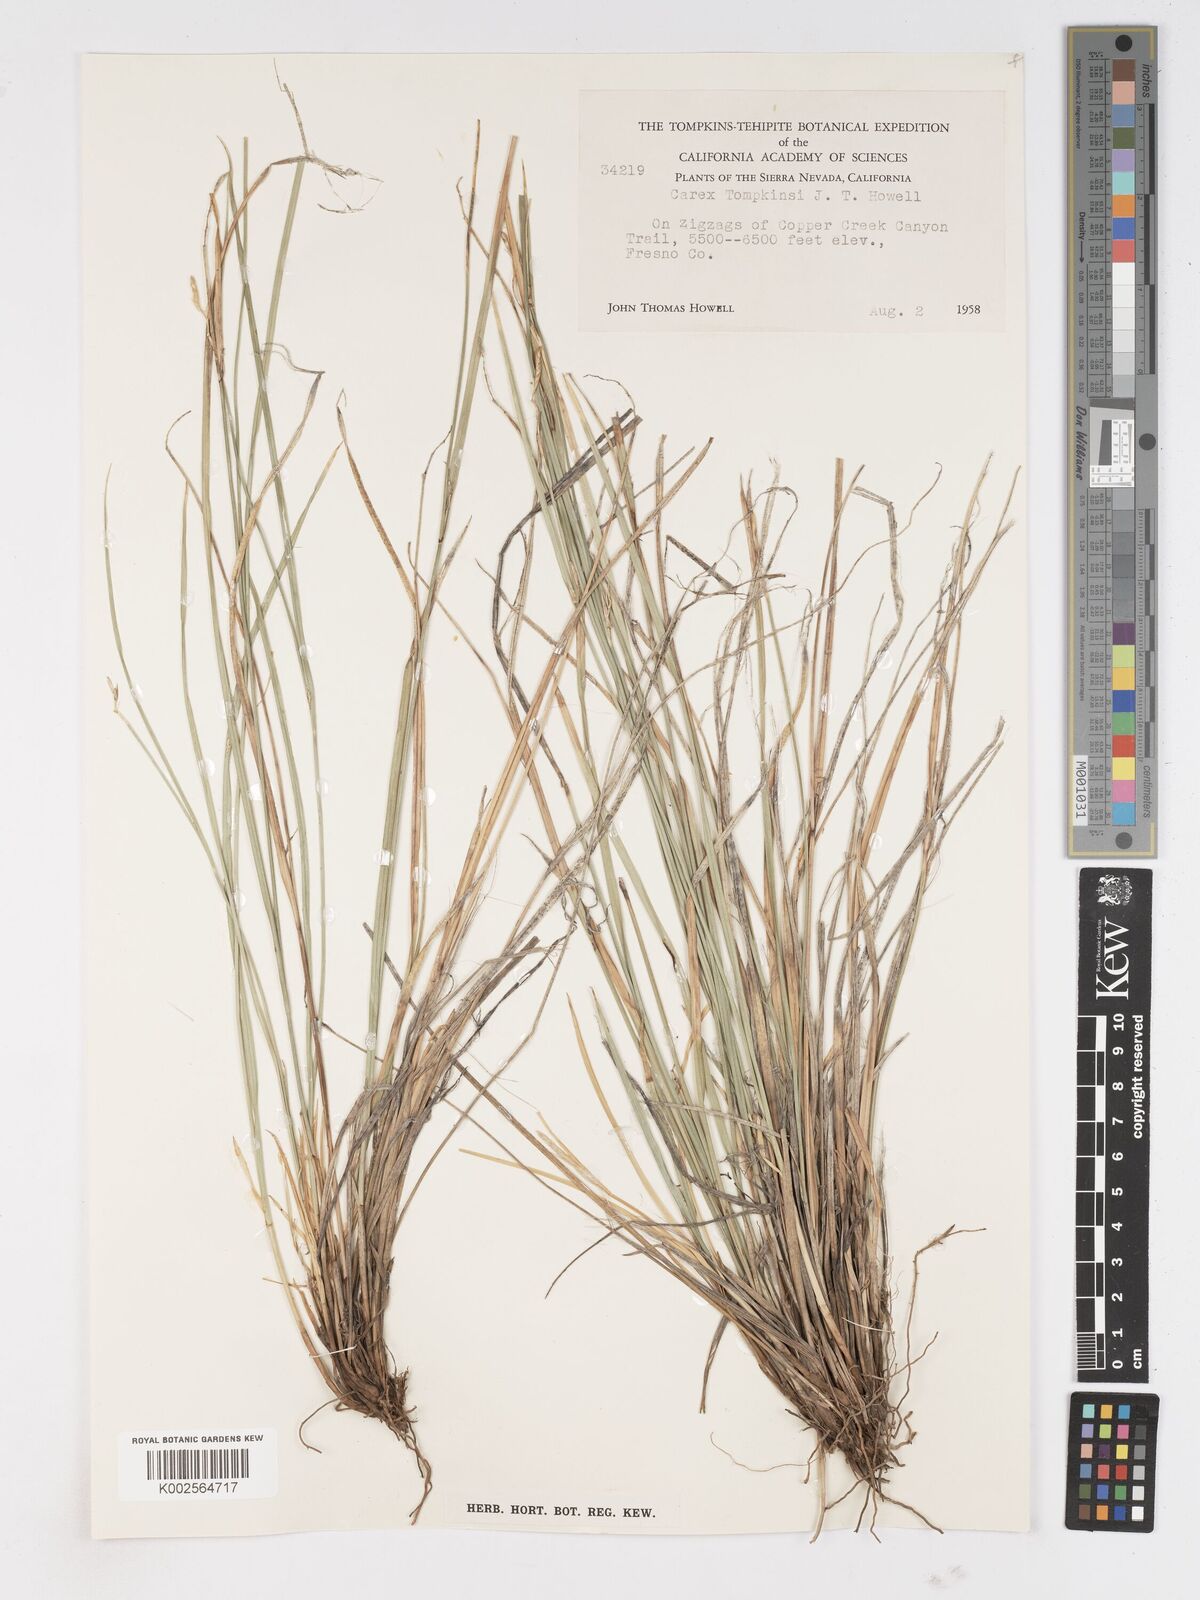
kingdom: Plantae
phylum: Tracheophyta
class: Liliopsida
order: Poales
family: Cyperaceae
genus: Carex
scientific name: Carex tompkinsii
